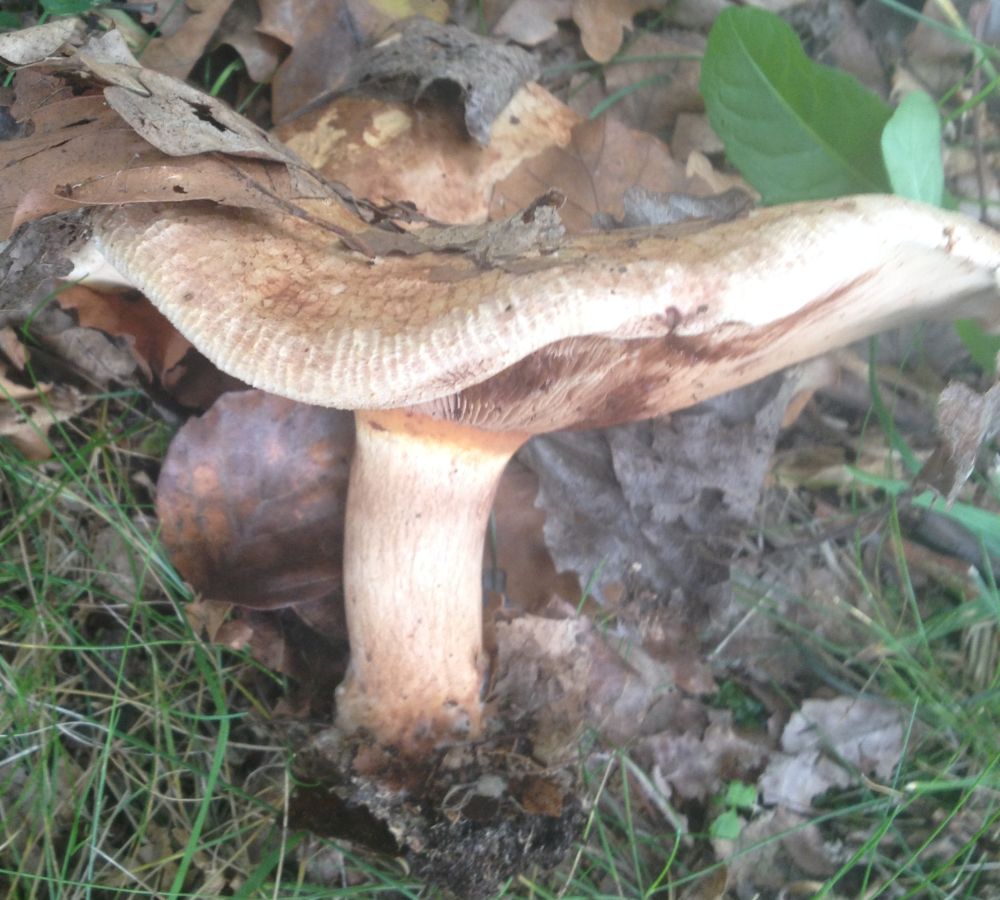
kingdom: Fungi
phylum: Basidiomycota
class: Agaricomycetes
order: Boletales
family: Paxillaceae
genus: Paxillus
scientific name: Paxillus
